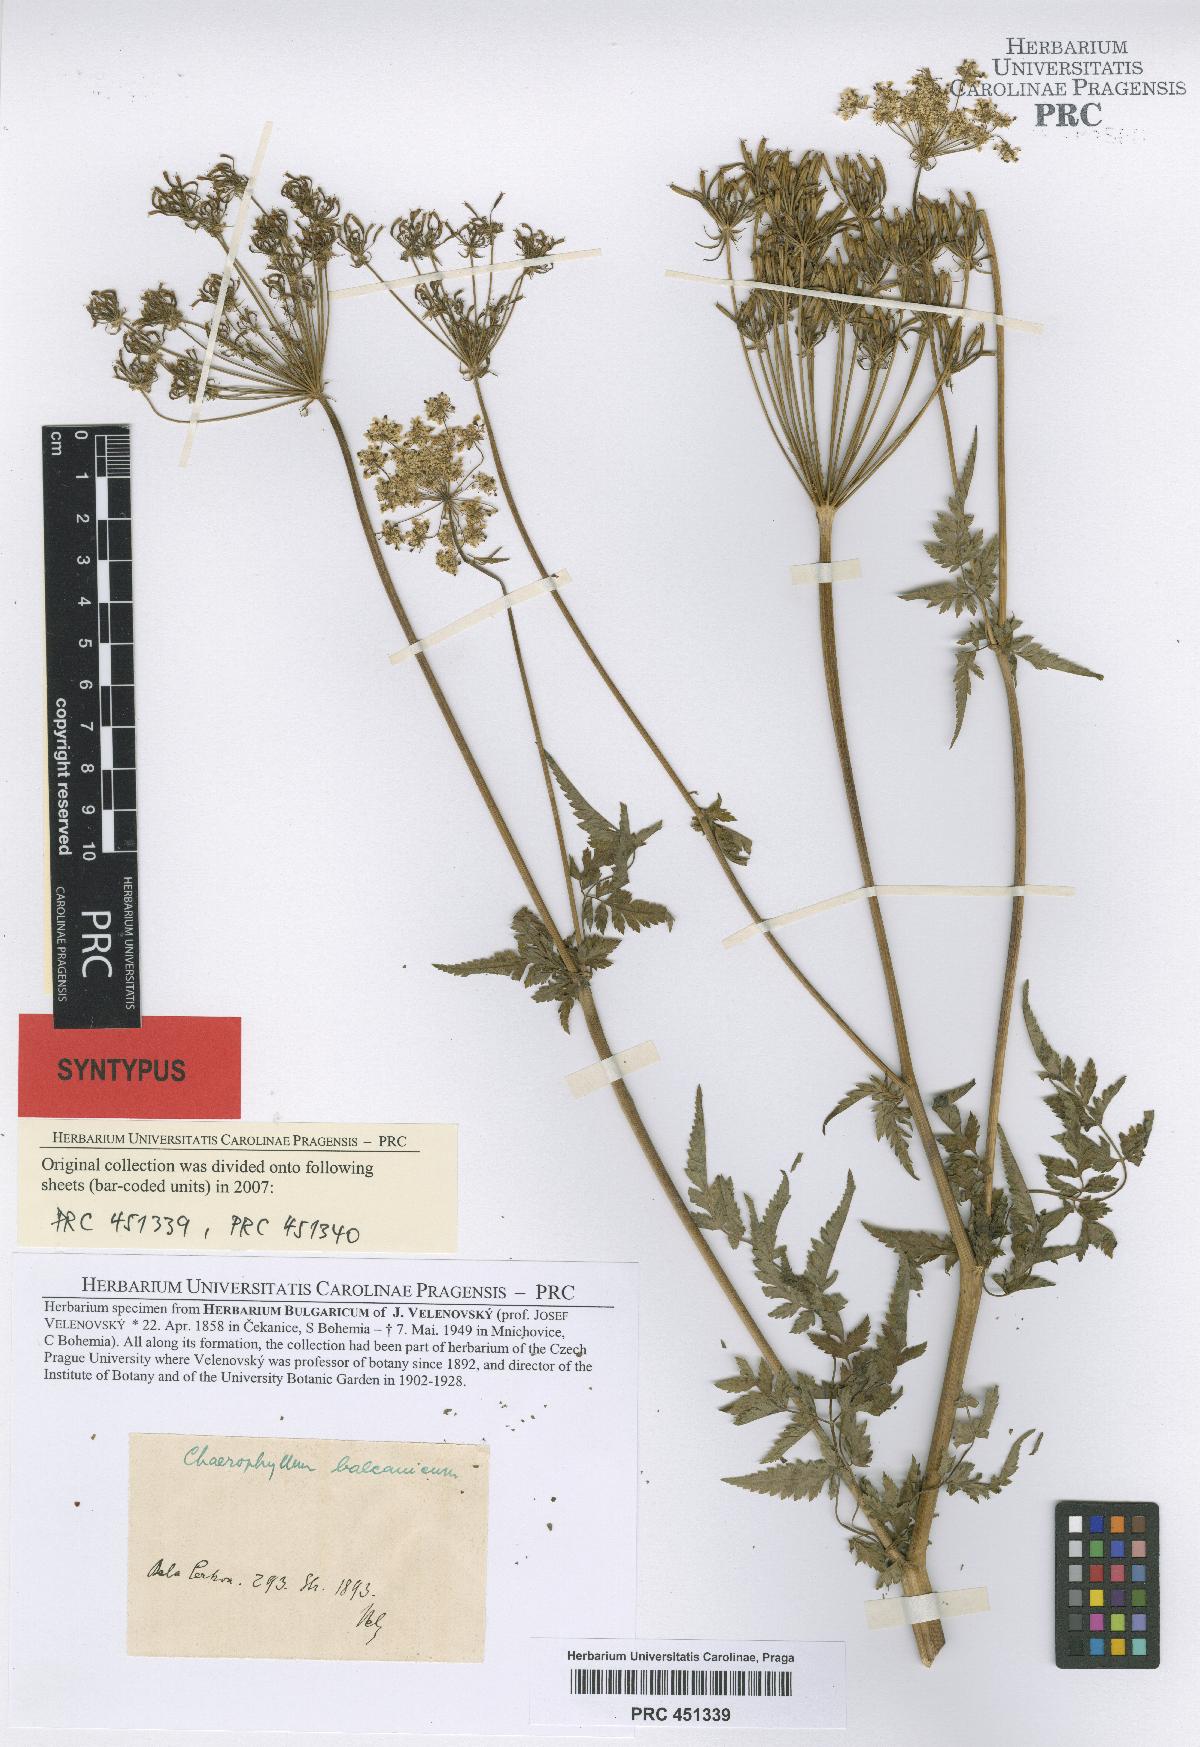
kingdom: Plantae
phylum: Tracheophyta
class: Magnoliopsida
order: Apiales
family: Apiaceae
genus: Geocaryum
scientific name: Geocaryum capillifolium
